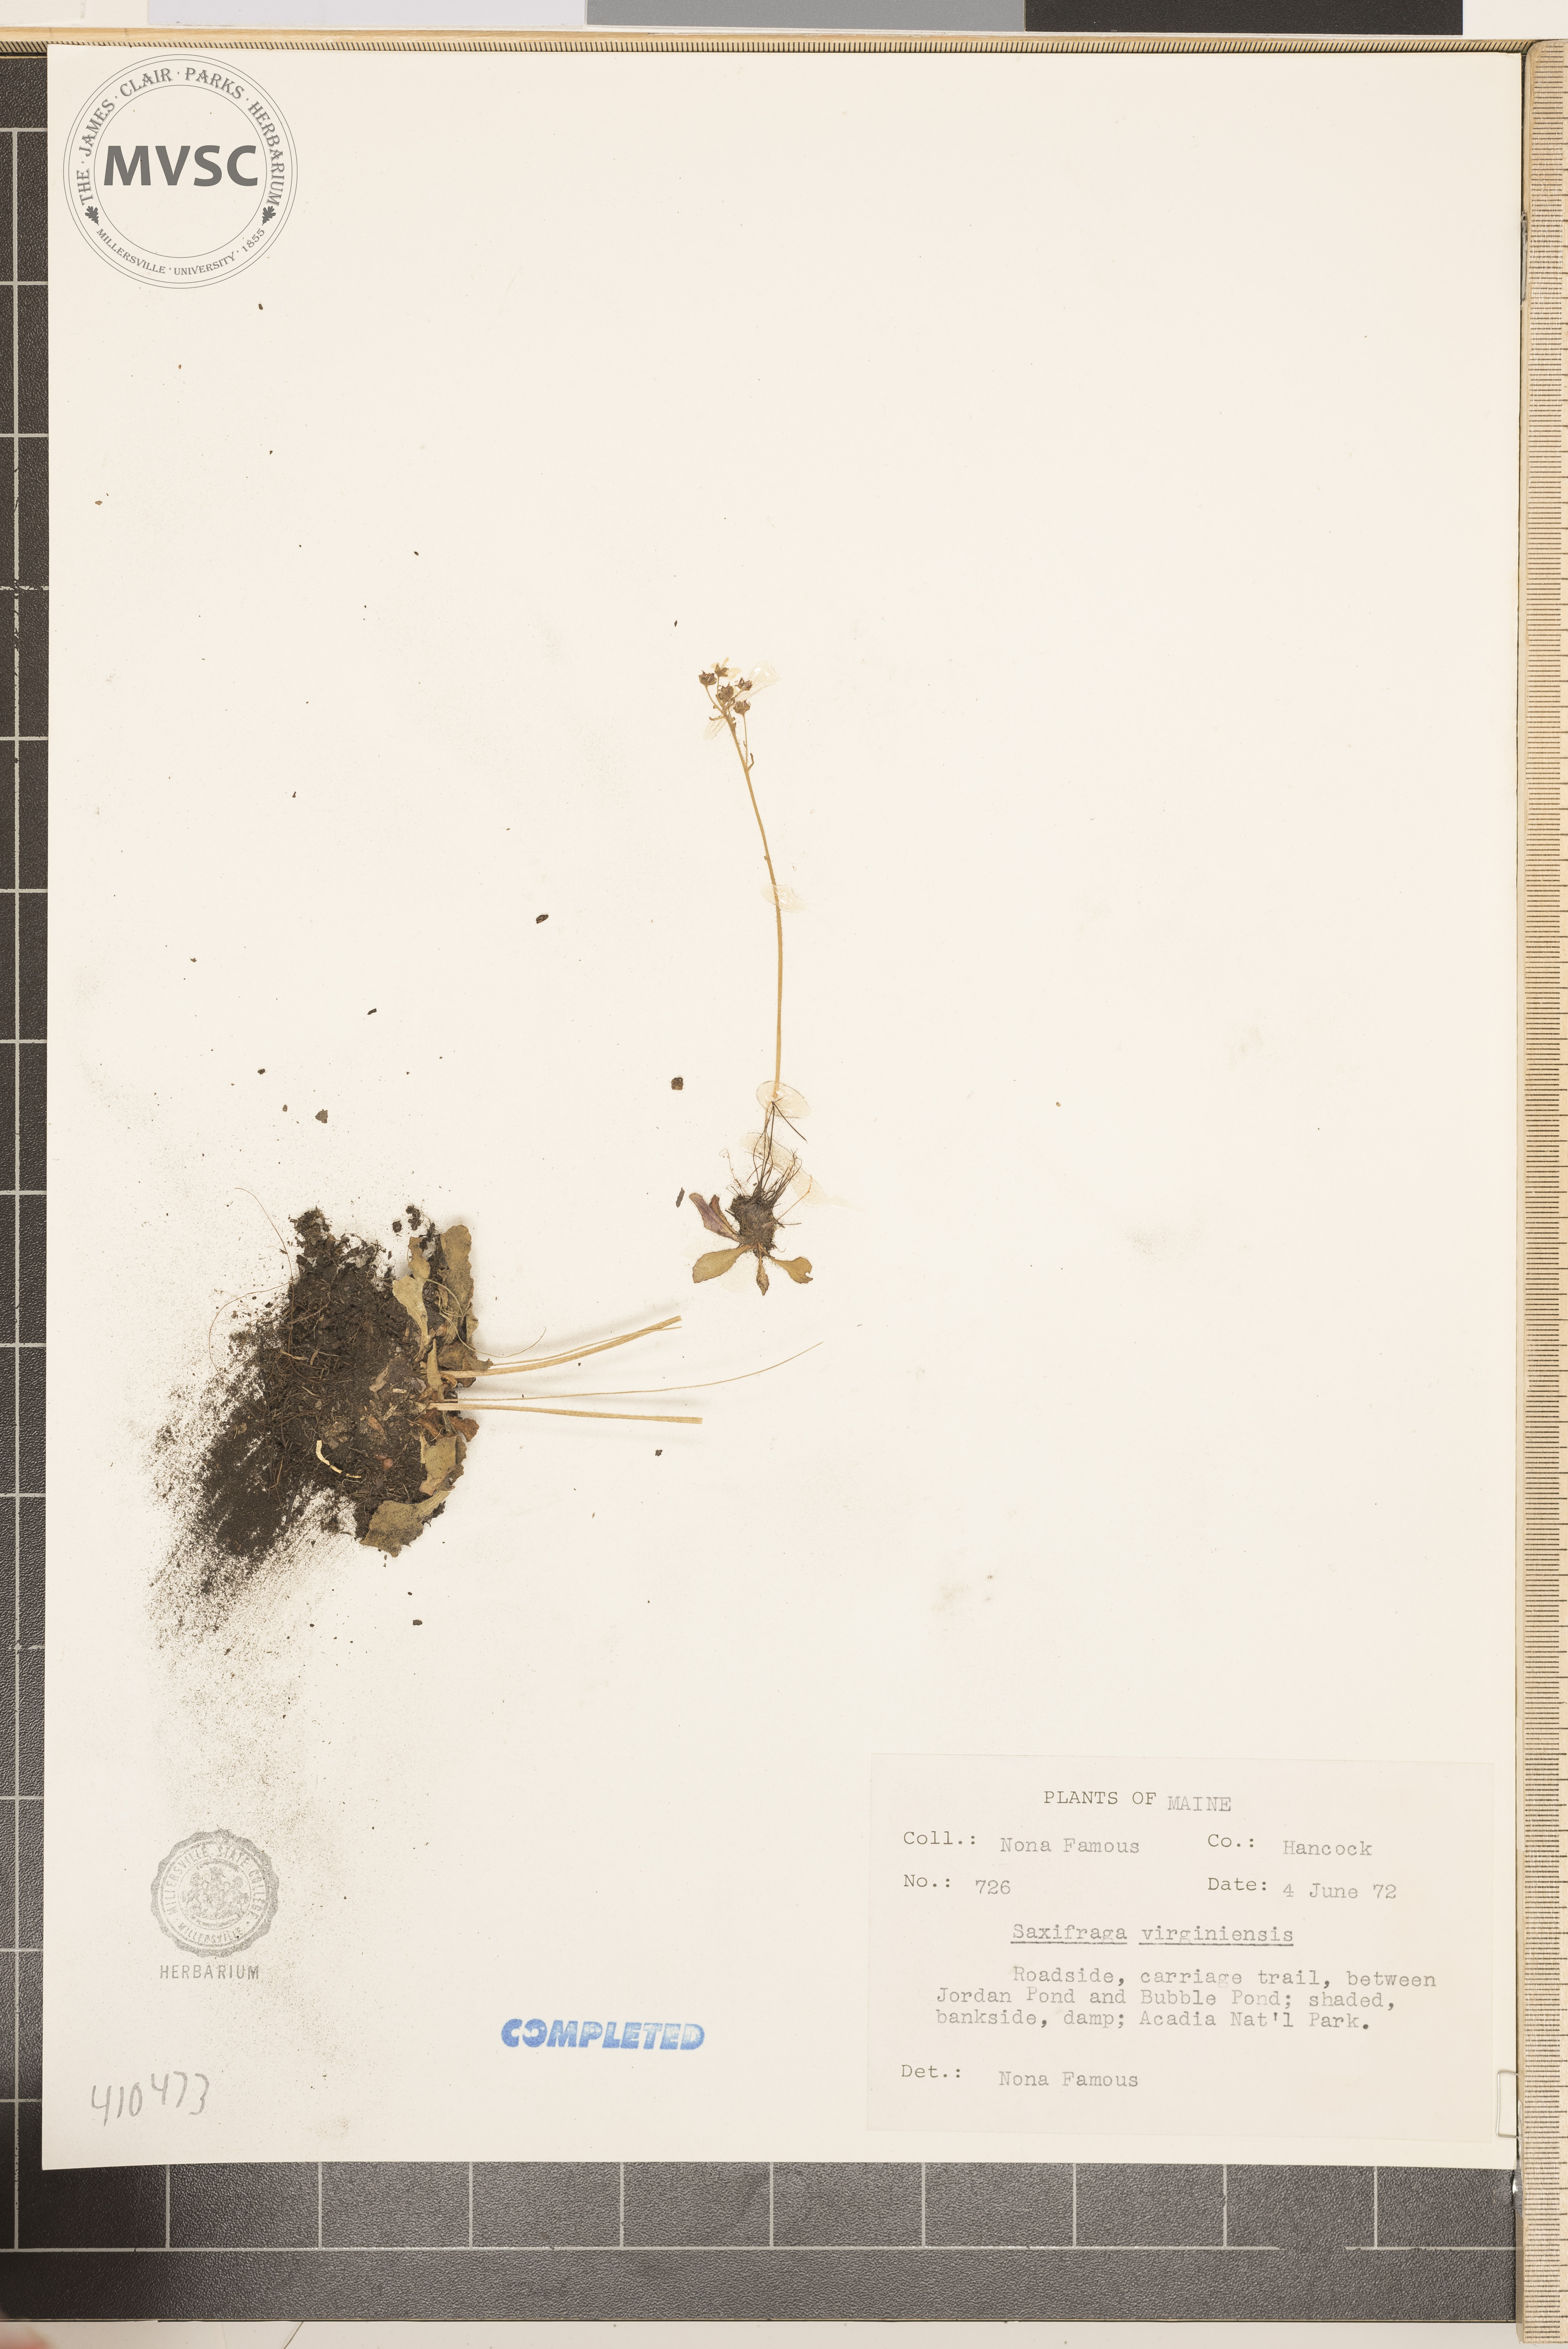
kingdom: Plantae
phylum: Tracheophyta
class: Magnoliopsida
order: Saxifragales
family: Saxifragaceae
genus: Micranthes
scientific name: Micranthes virginiensis
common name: Early saxifrage
